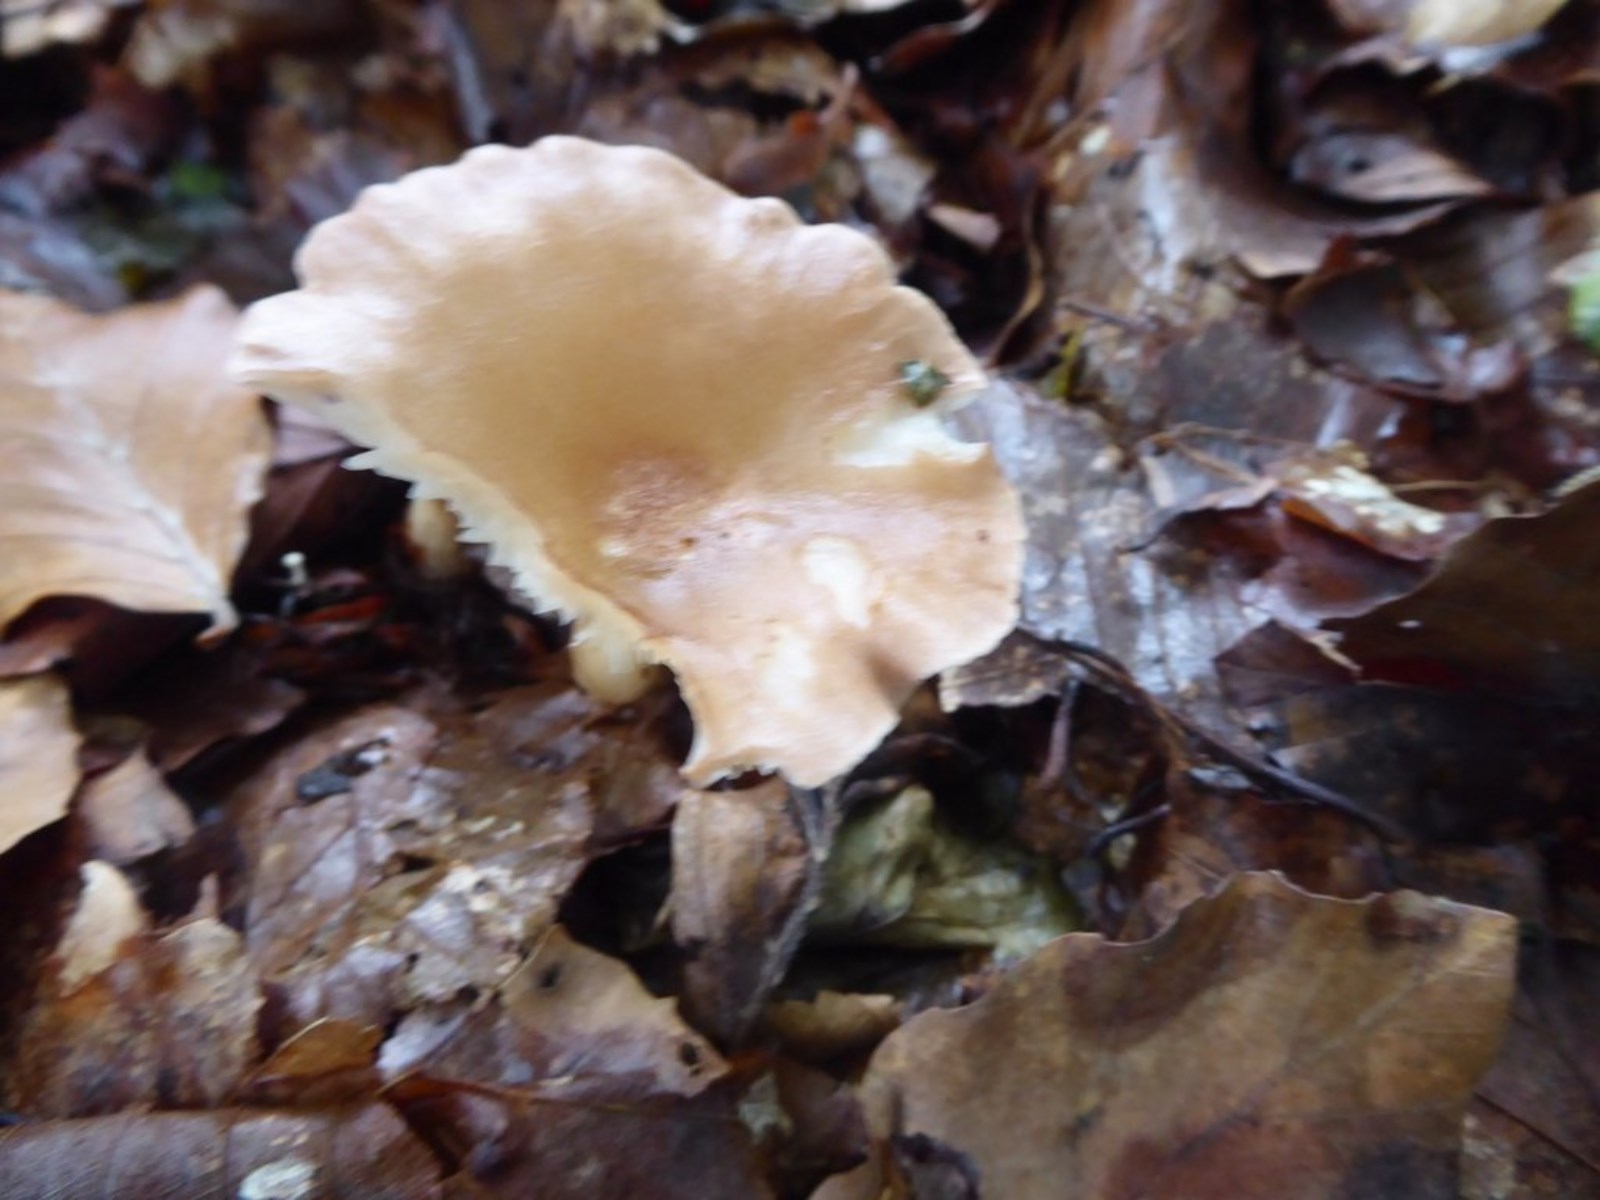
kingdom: Fungi
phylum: Basidiomycota
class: Agaricomycetes
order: Agaricales
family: Tricholomataceae
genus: Infundibulicybe
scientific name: Infundibulicybe gibba
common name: almindelig tragthat
